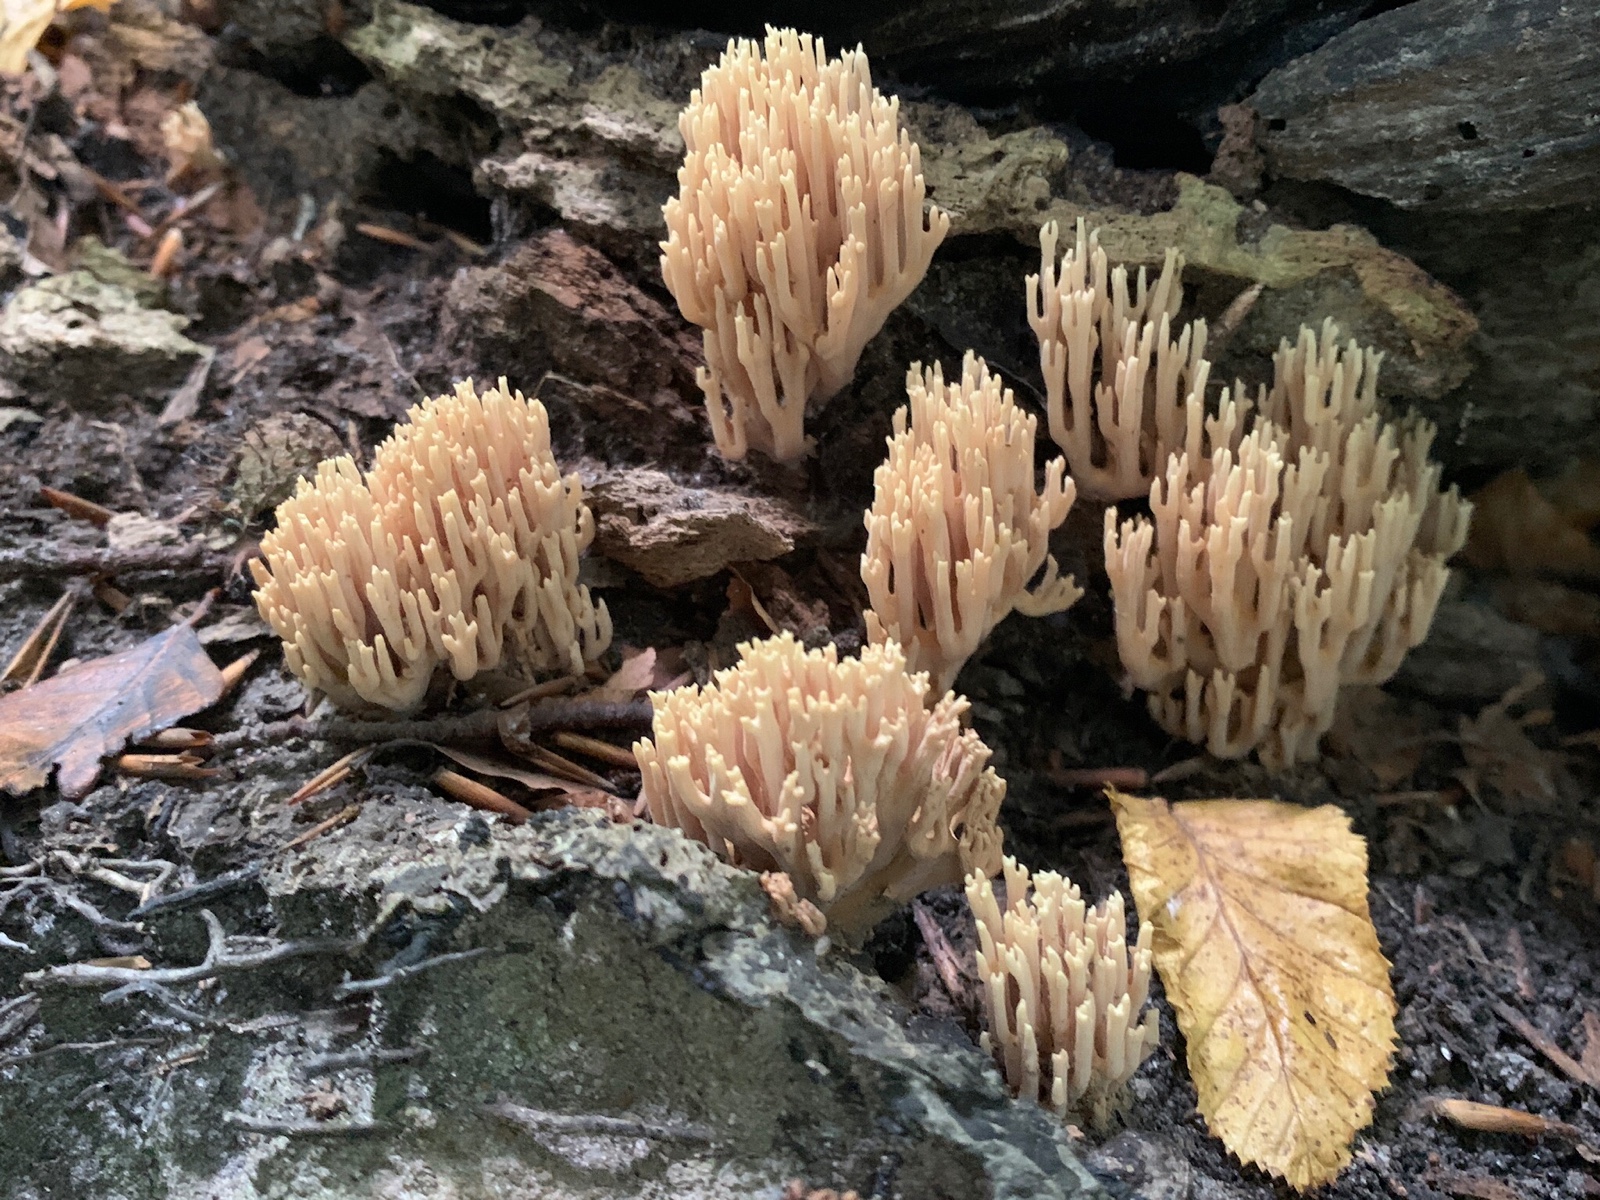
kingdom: Fungi
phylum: Basidiomycota
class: Agaricomycetes
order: Gomphales
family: Gomphaceae
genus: Ramaria
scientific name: Ramaria stricta
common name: rank koralsvamp
